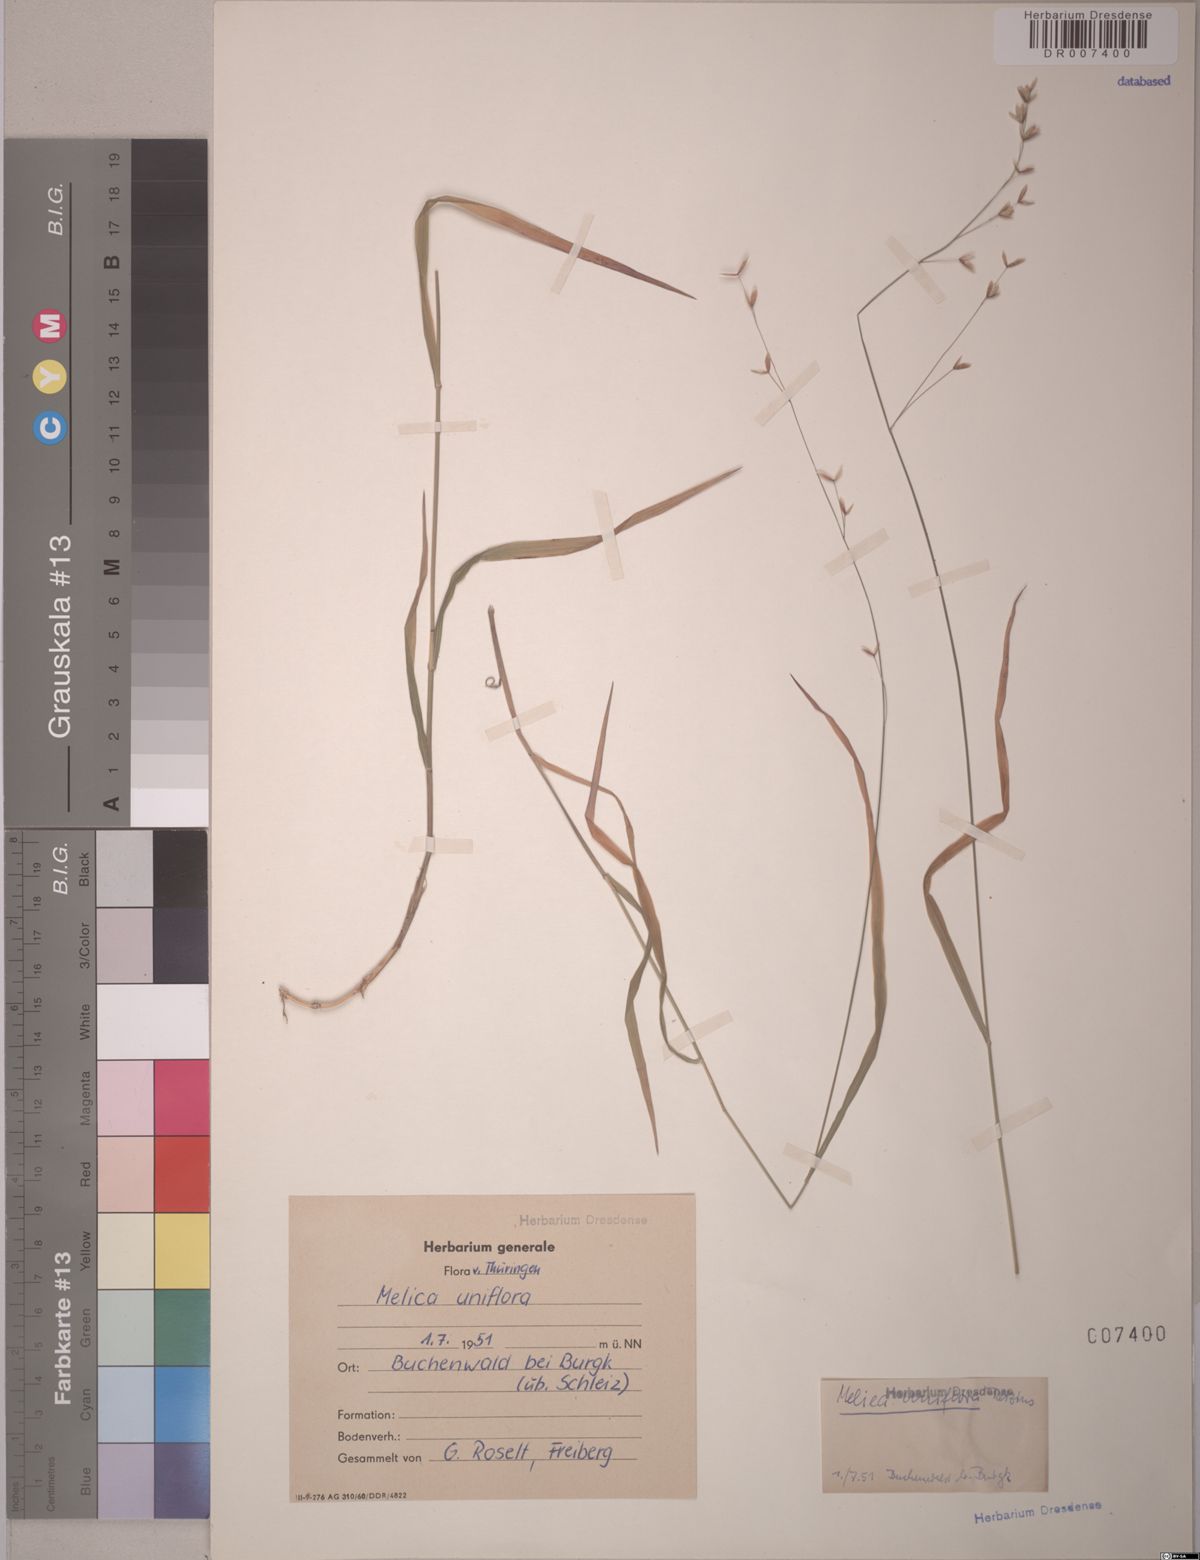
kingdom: Plantae
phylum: Tracheophyta
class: Liliopsida
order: Poales
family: Poaceae
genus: Melica
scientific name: Melica uniflora
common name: Wood melick
